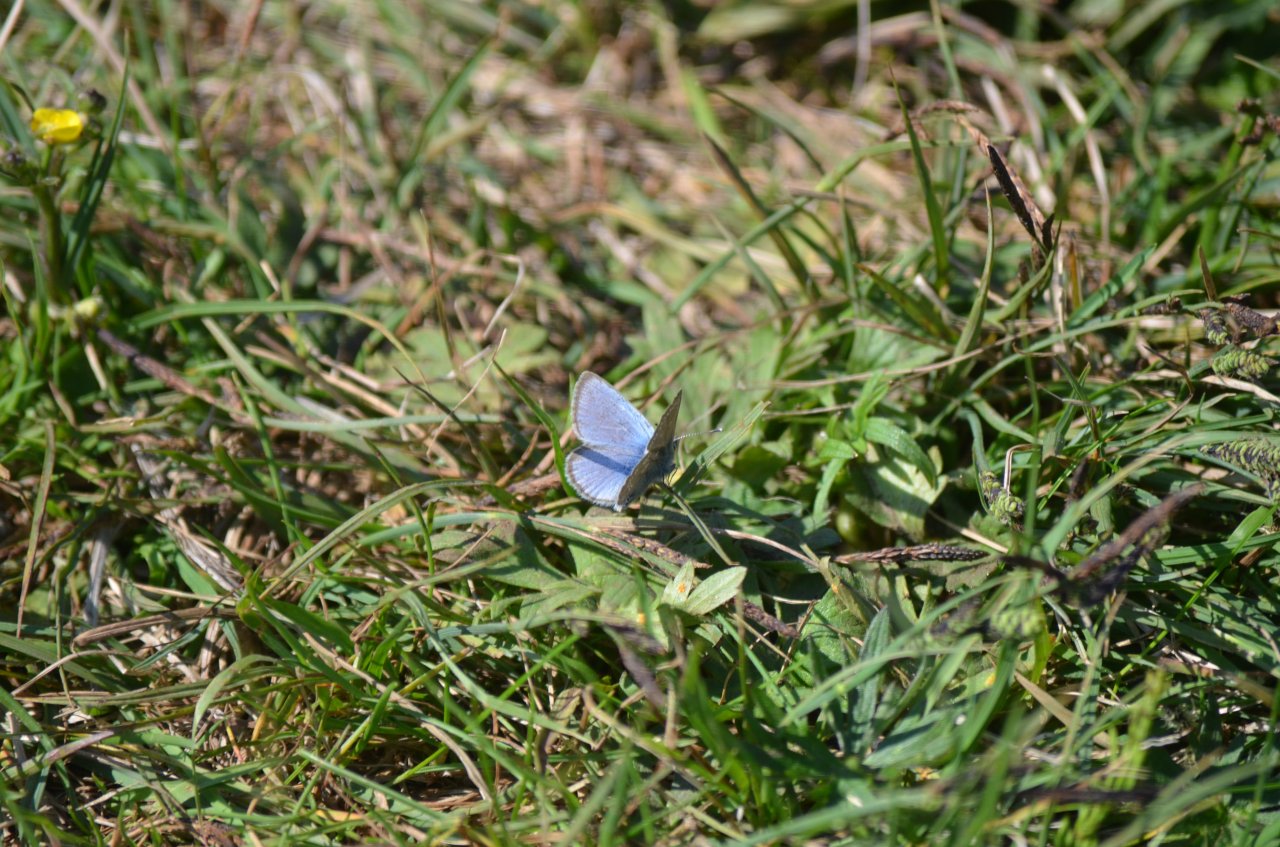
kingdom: Animalia
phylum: Arthropoda
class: Insecta
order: Lepidoptera
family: Lycaenidae
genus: Glaucopsyche
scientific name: Glaucopsyche lygdamus
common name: Silvery Blue
